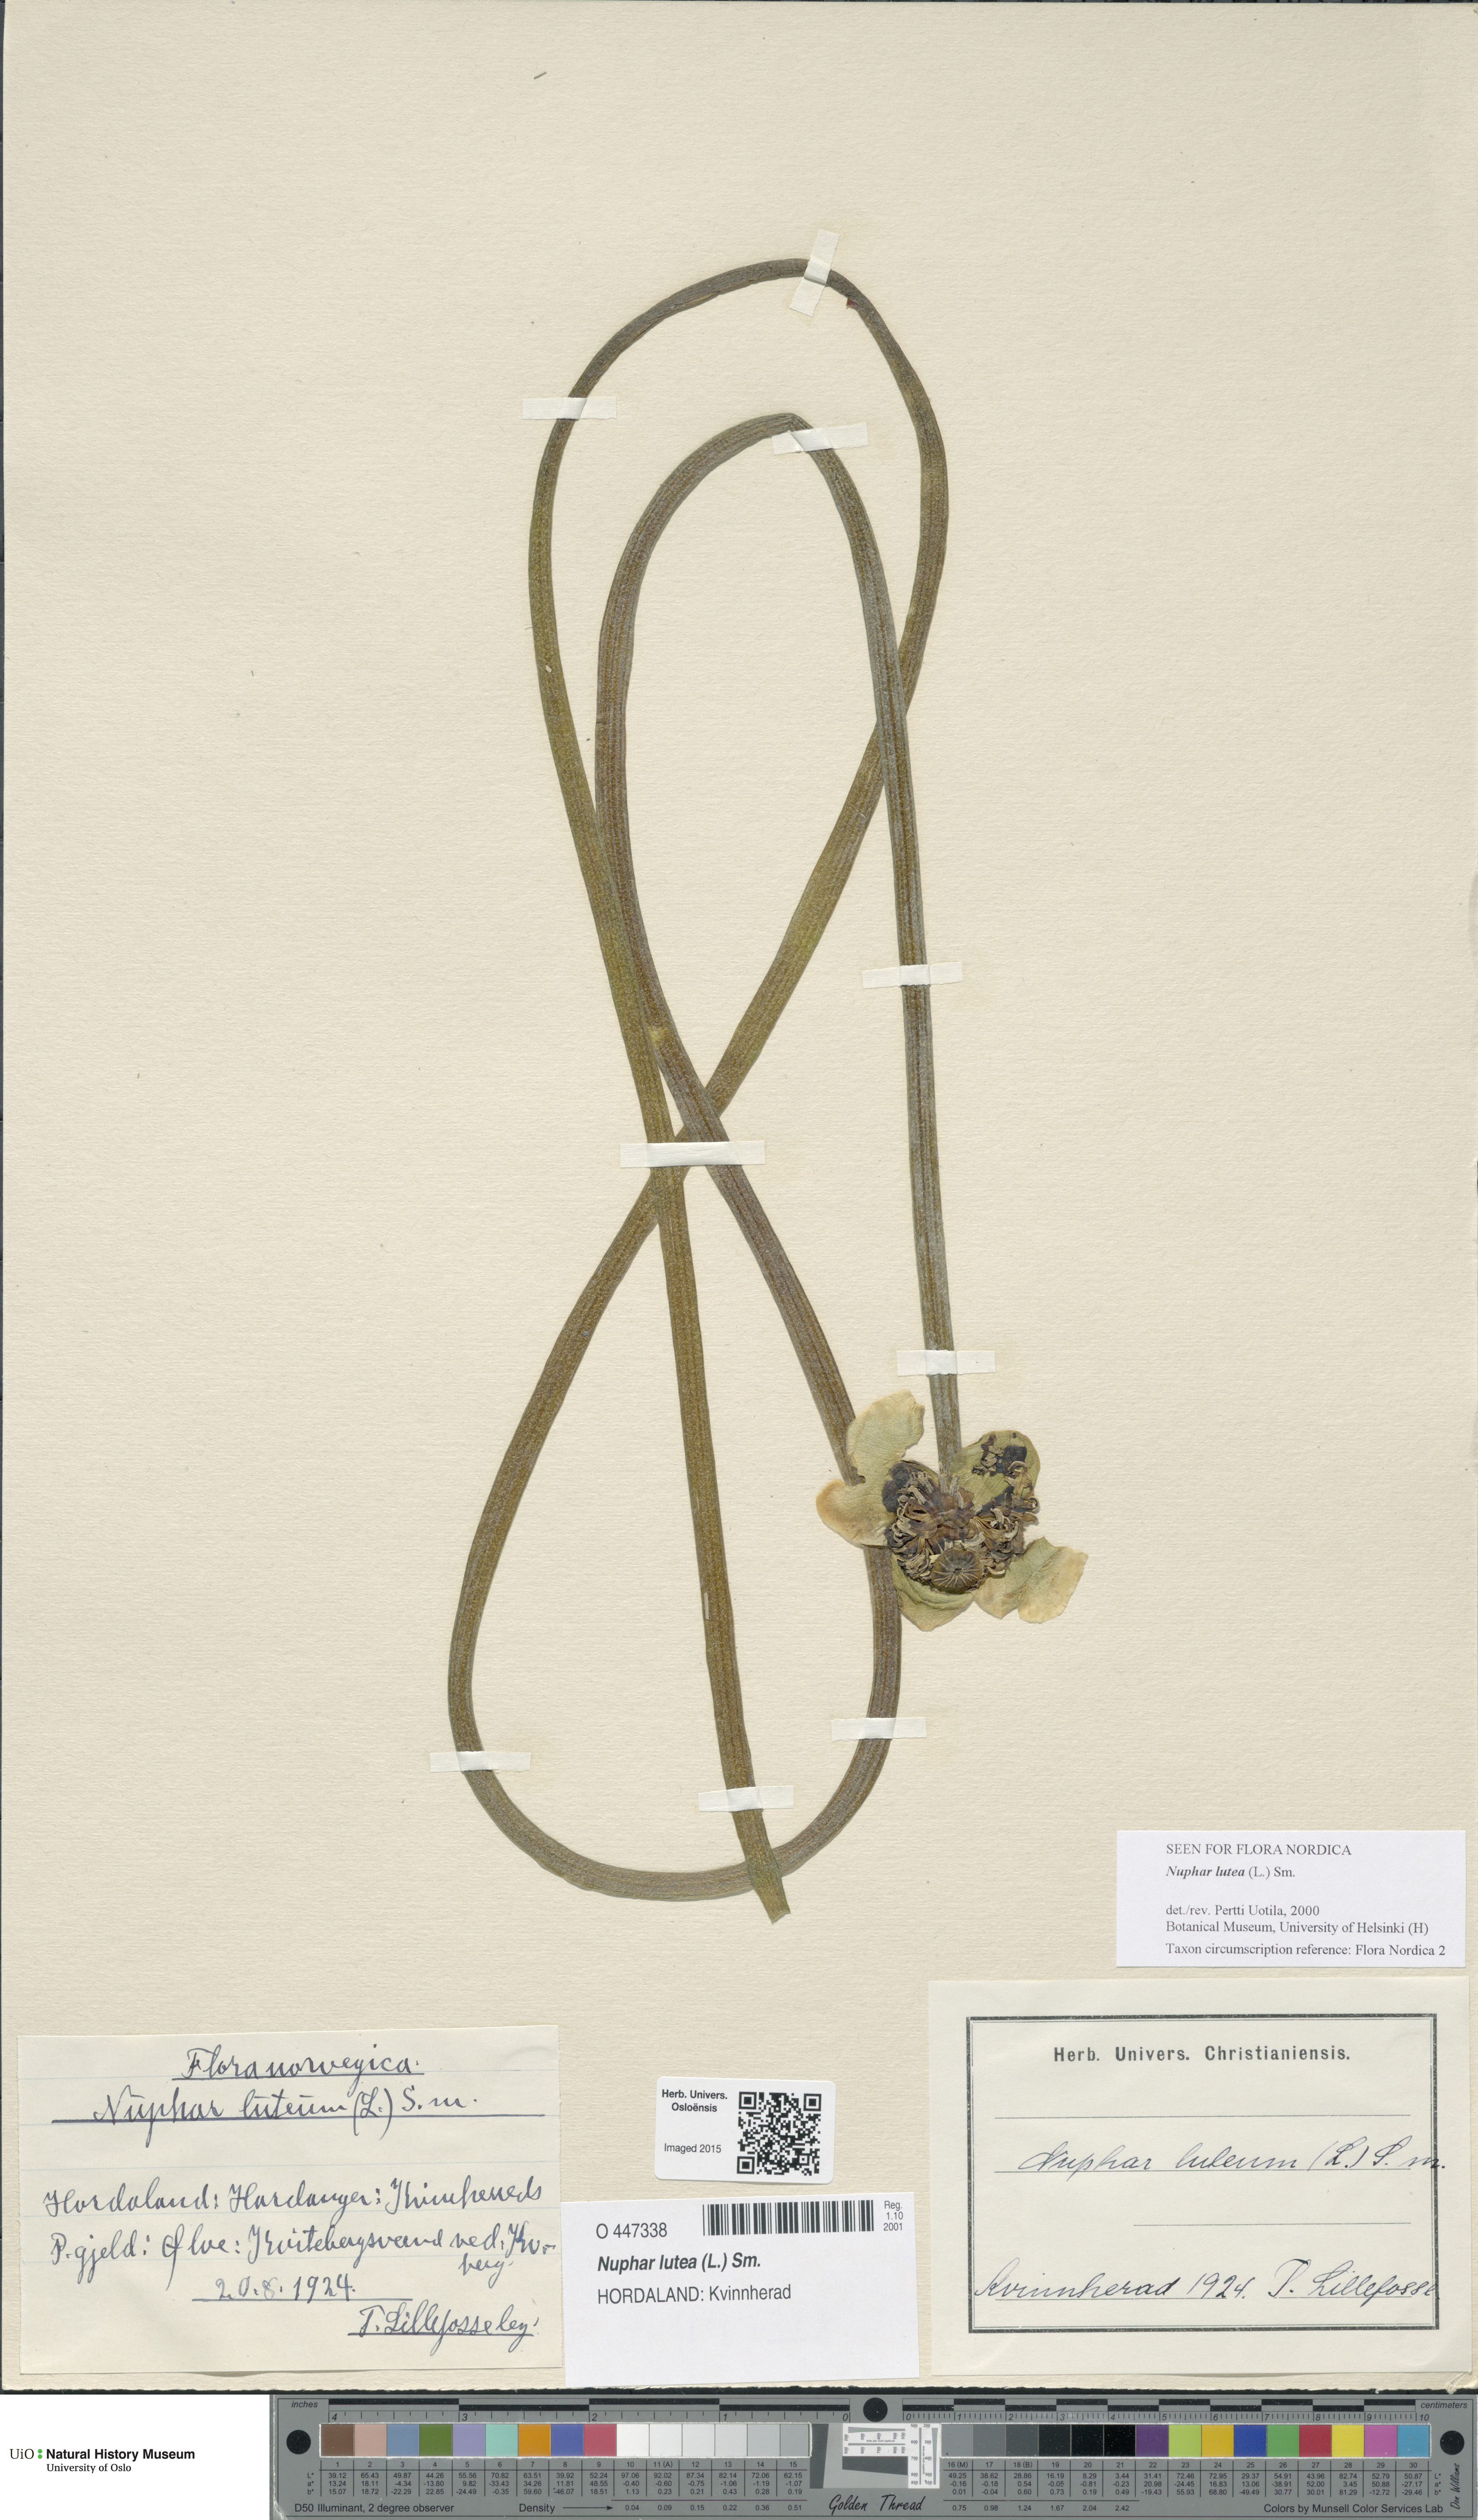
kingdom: Plantae
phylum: Tracheophyta
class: Magnoliopsida
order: Nymphaeales
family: Nymphaeaceae
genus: Nuphar
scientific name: Nuphar lutea
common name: Yellow water-lily
